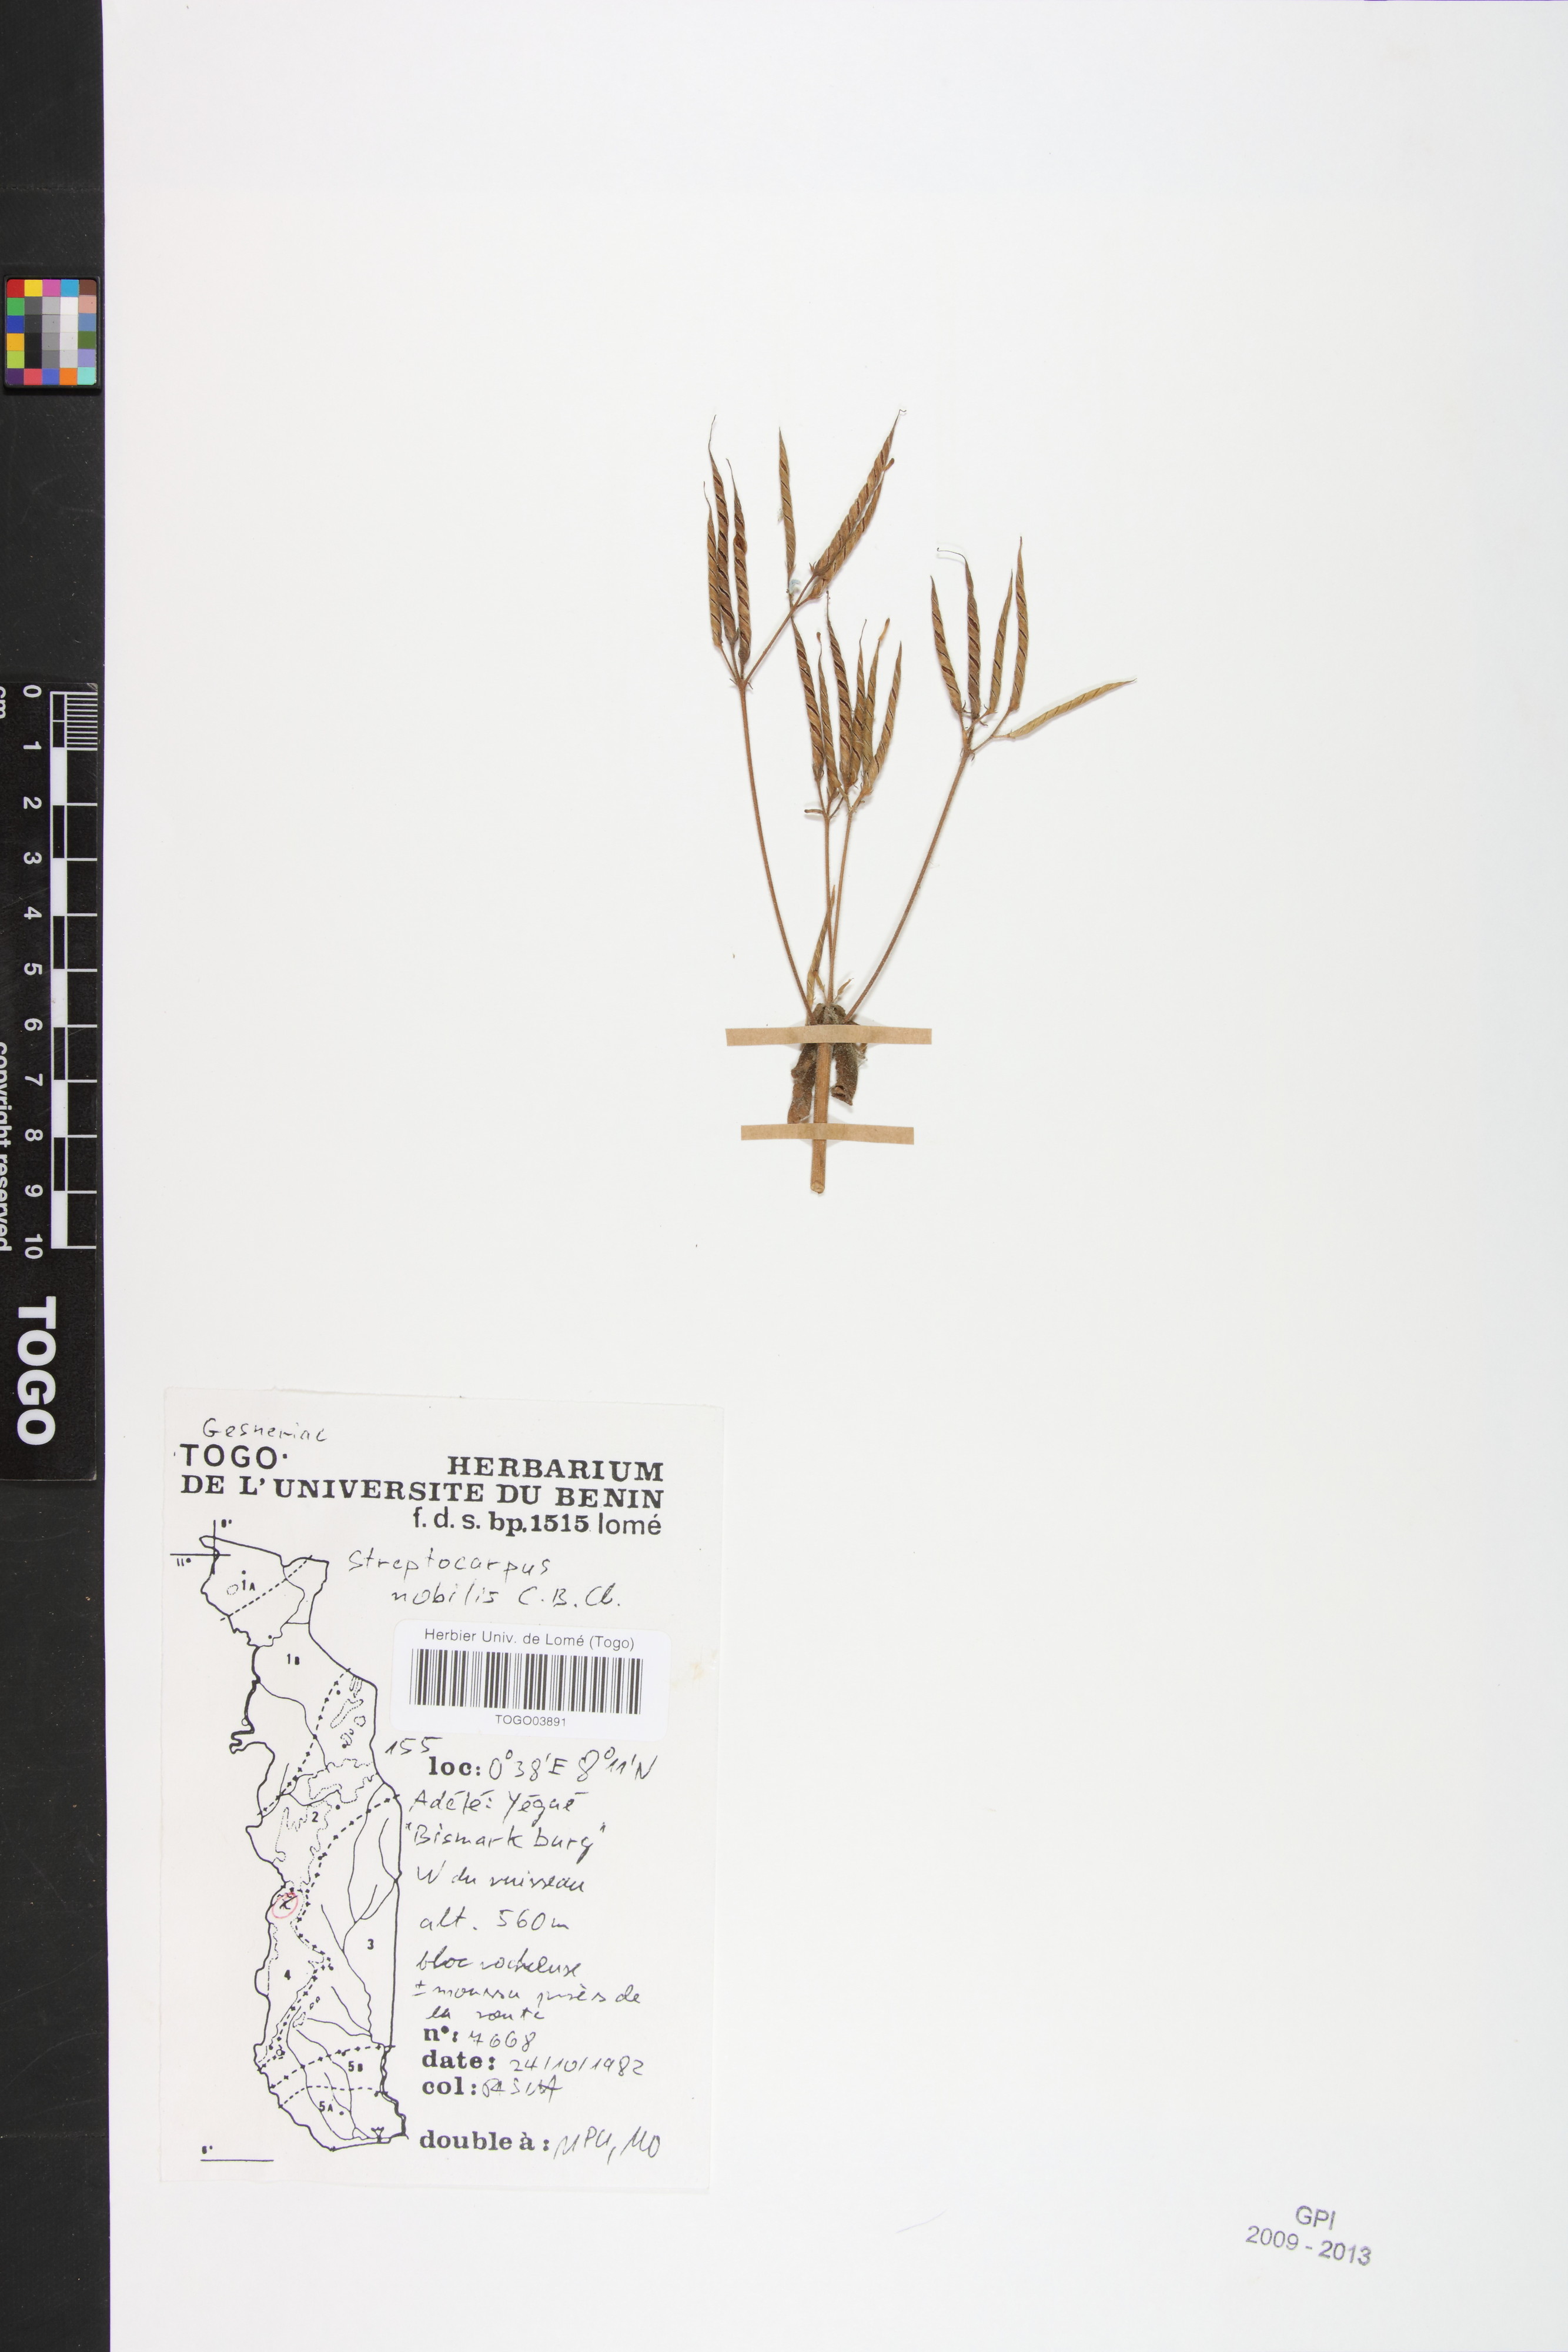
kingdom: Plantae
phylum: Tracheophyta
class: Magnoliopsida
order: Lamiales
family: Gesneriaceae
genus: Streptocarpus
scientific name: Streptocarpus nobilis
